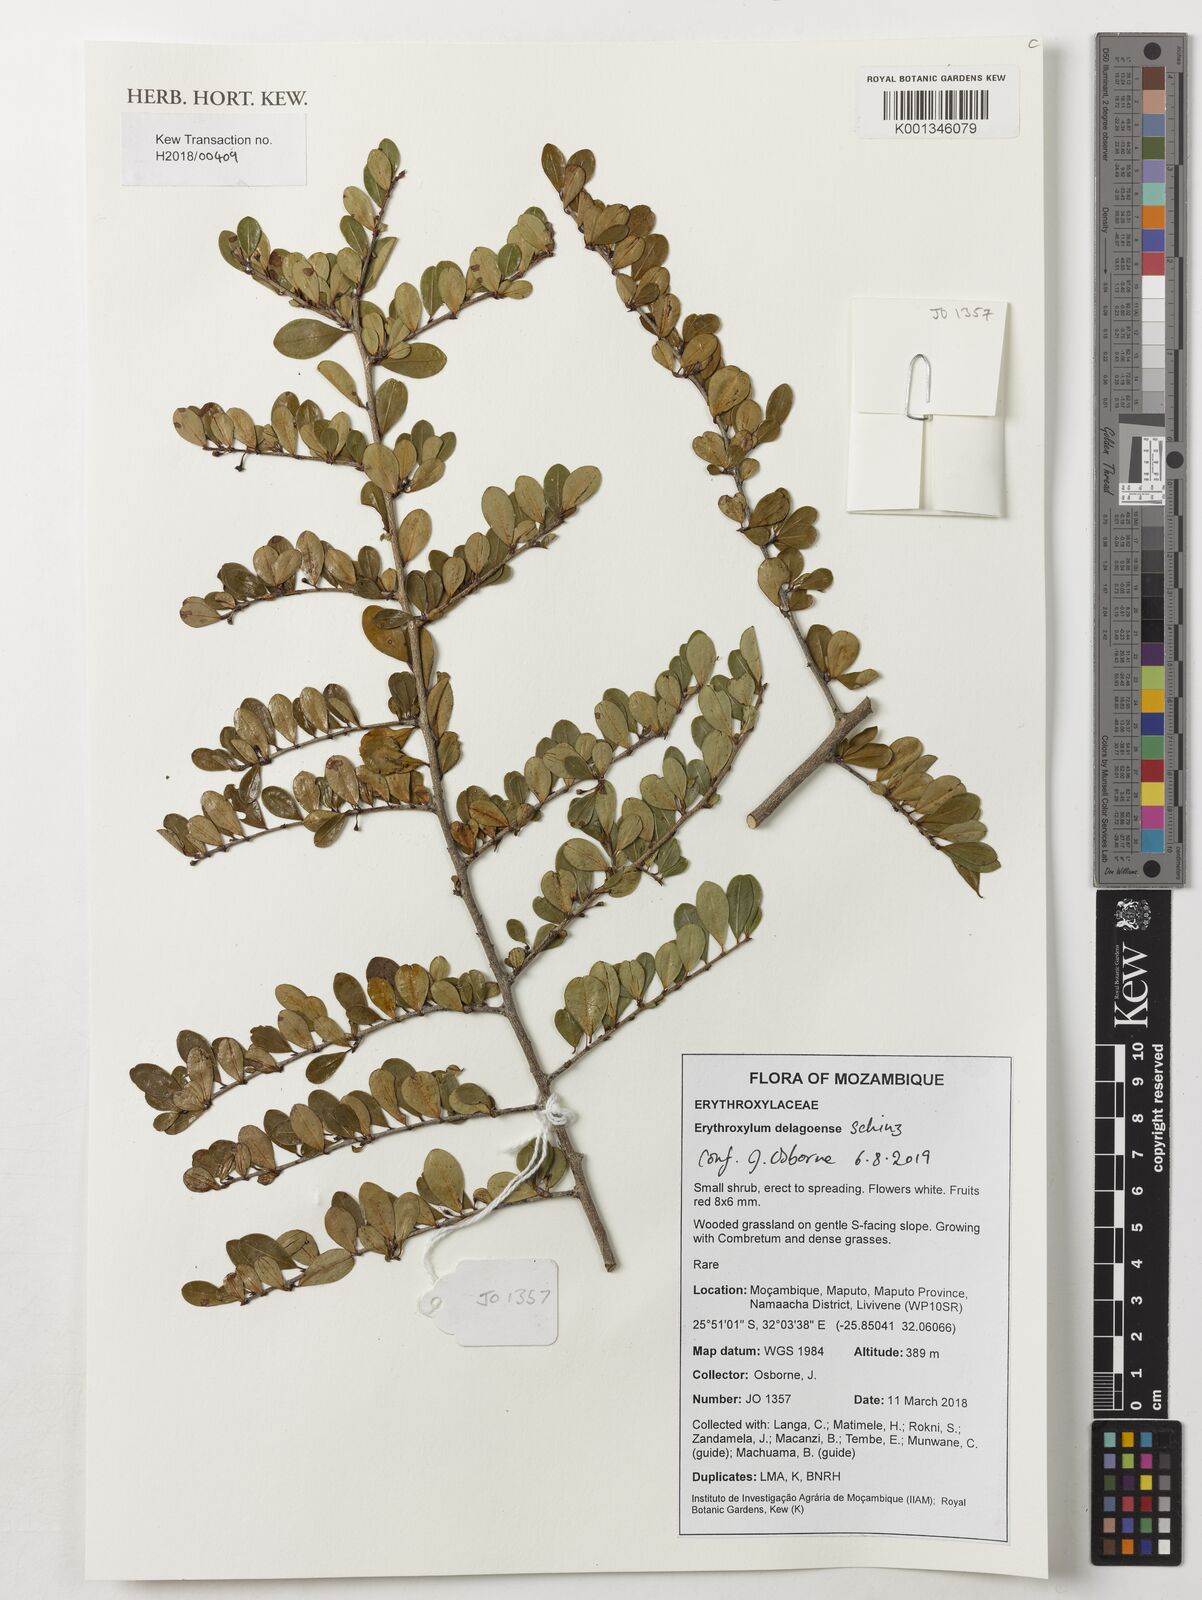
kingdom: Plantae
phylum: Tracheophyta
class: Magnoliopsida
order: Malpighiales
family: Erythroxylaceae
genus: Erythroxylum
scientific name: Erythroxylum delagoense
